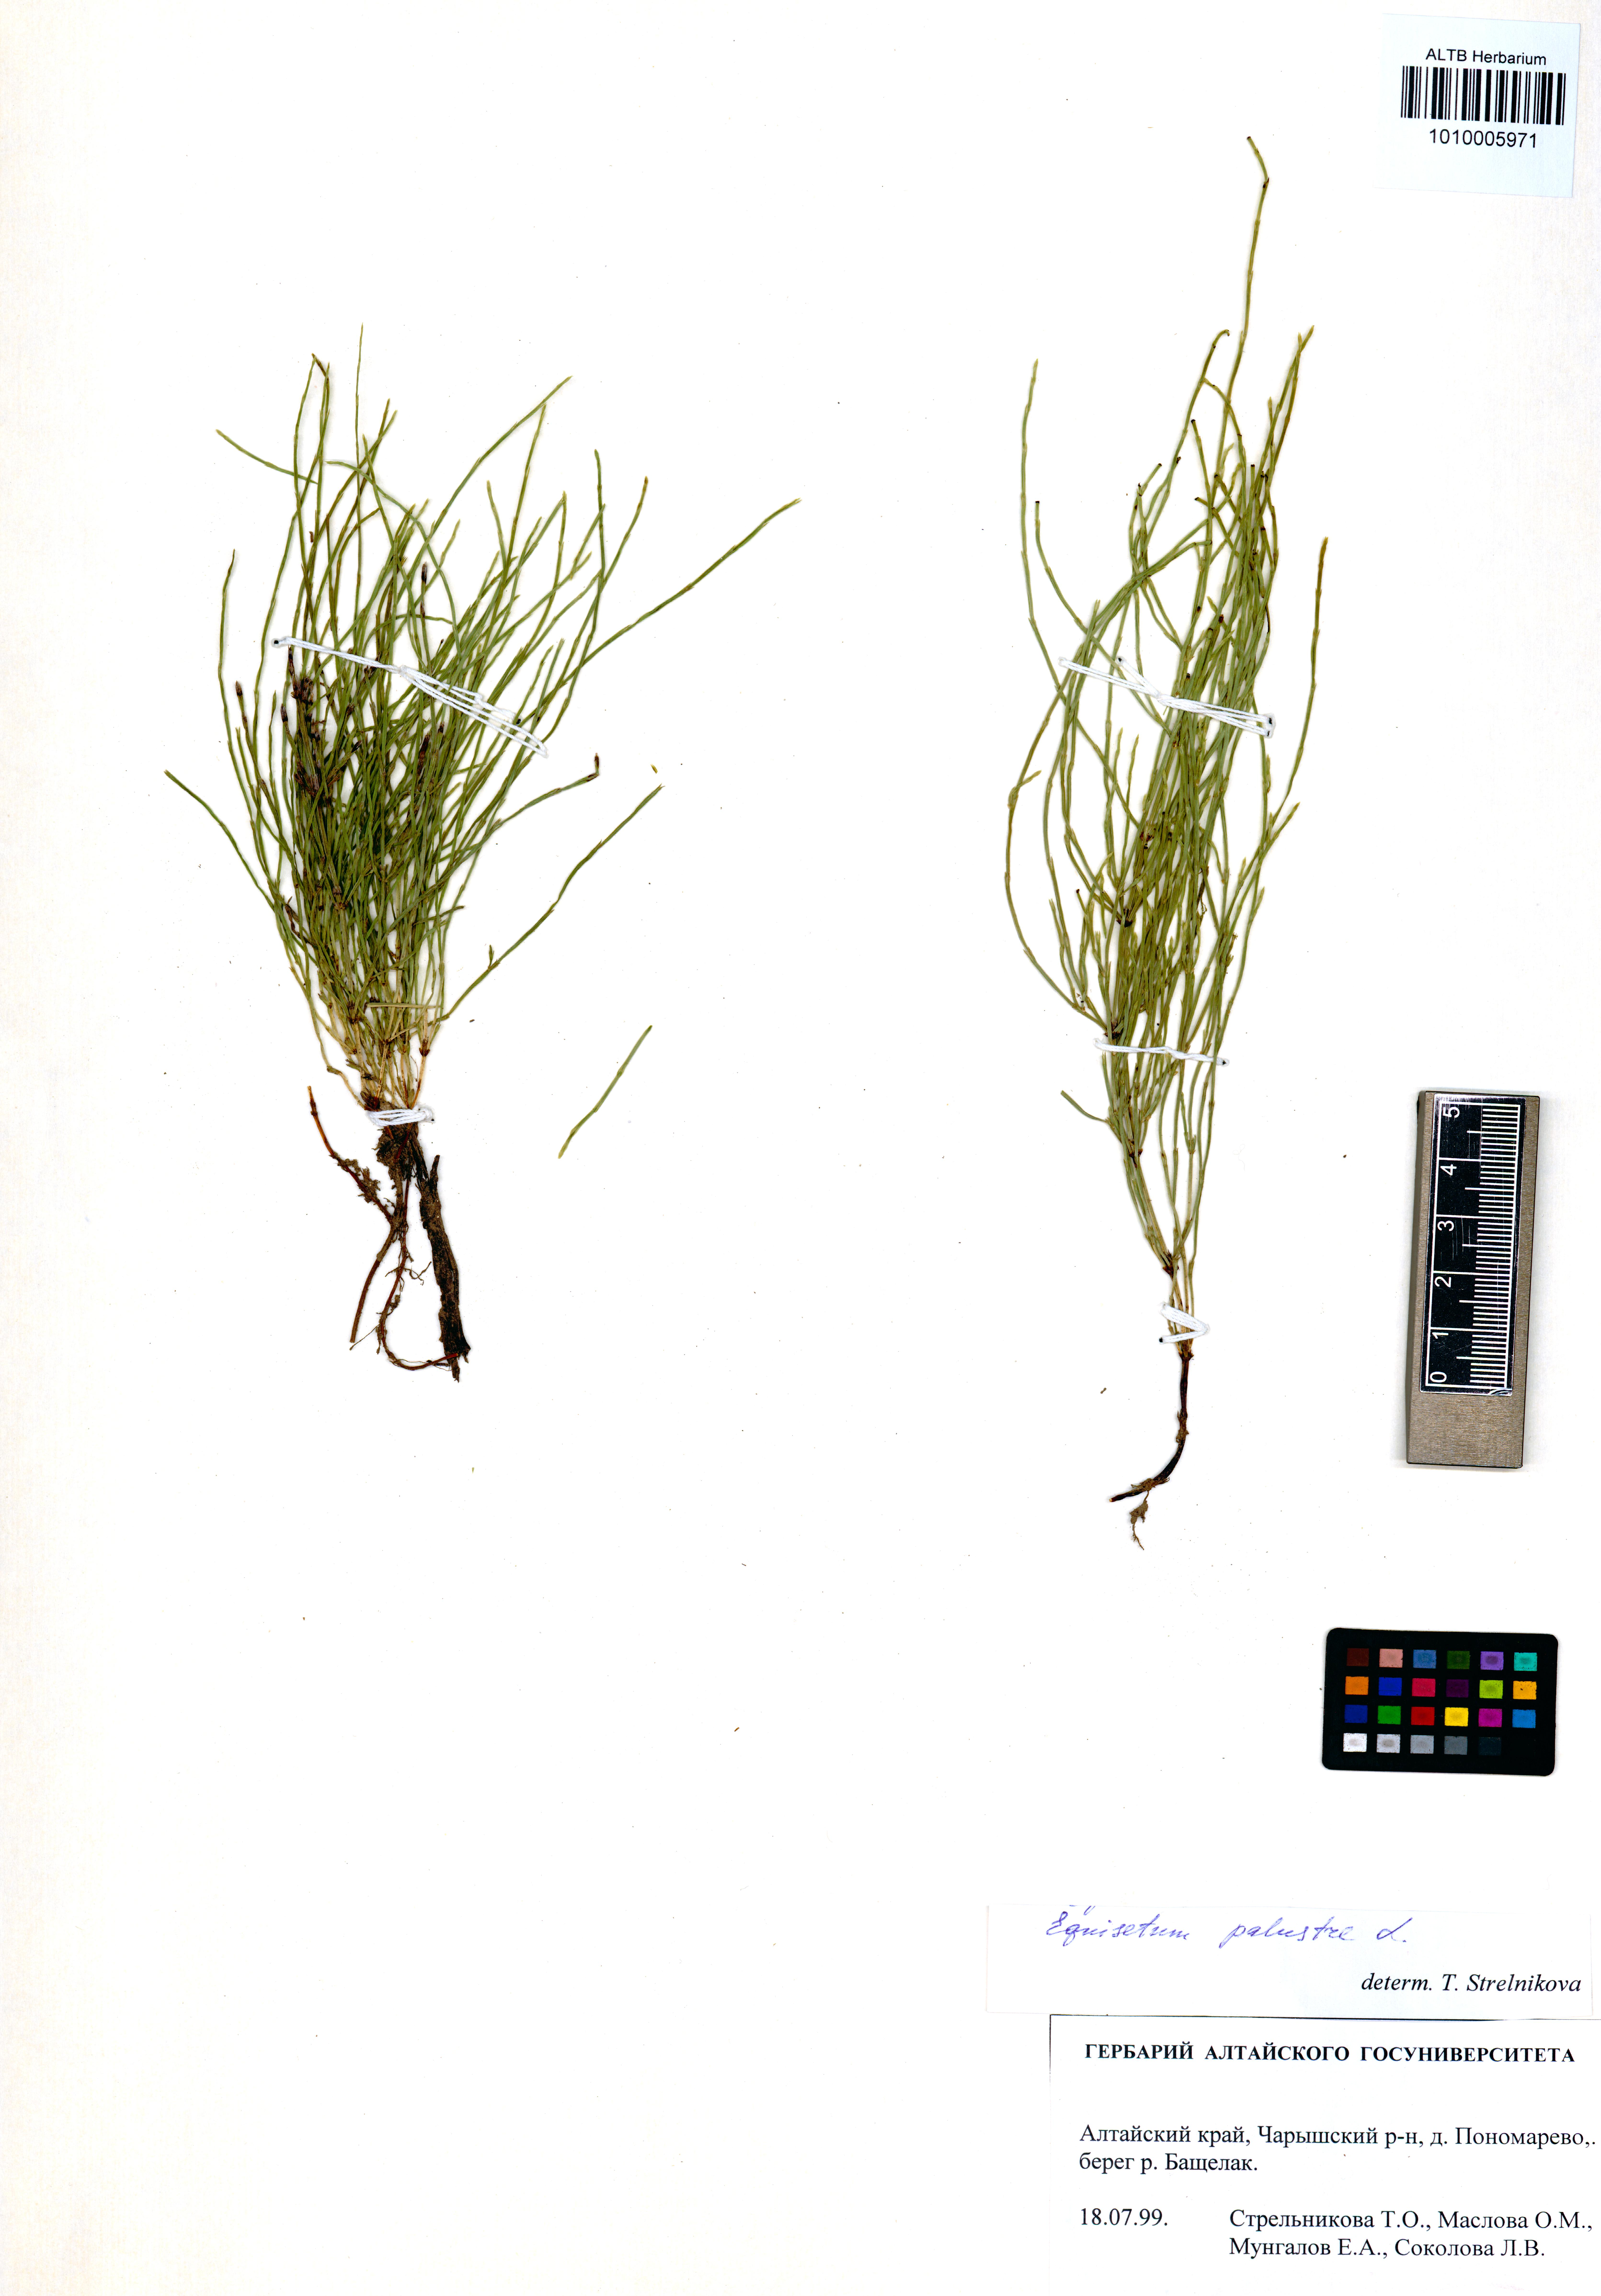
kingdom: Plantae
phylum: Tracheophyta
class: Polypodiopsida
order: Equisetales
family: Equisetaceae
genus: Equisetum
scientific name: Equisetum palustre
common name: Marsh horsetail
